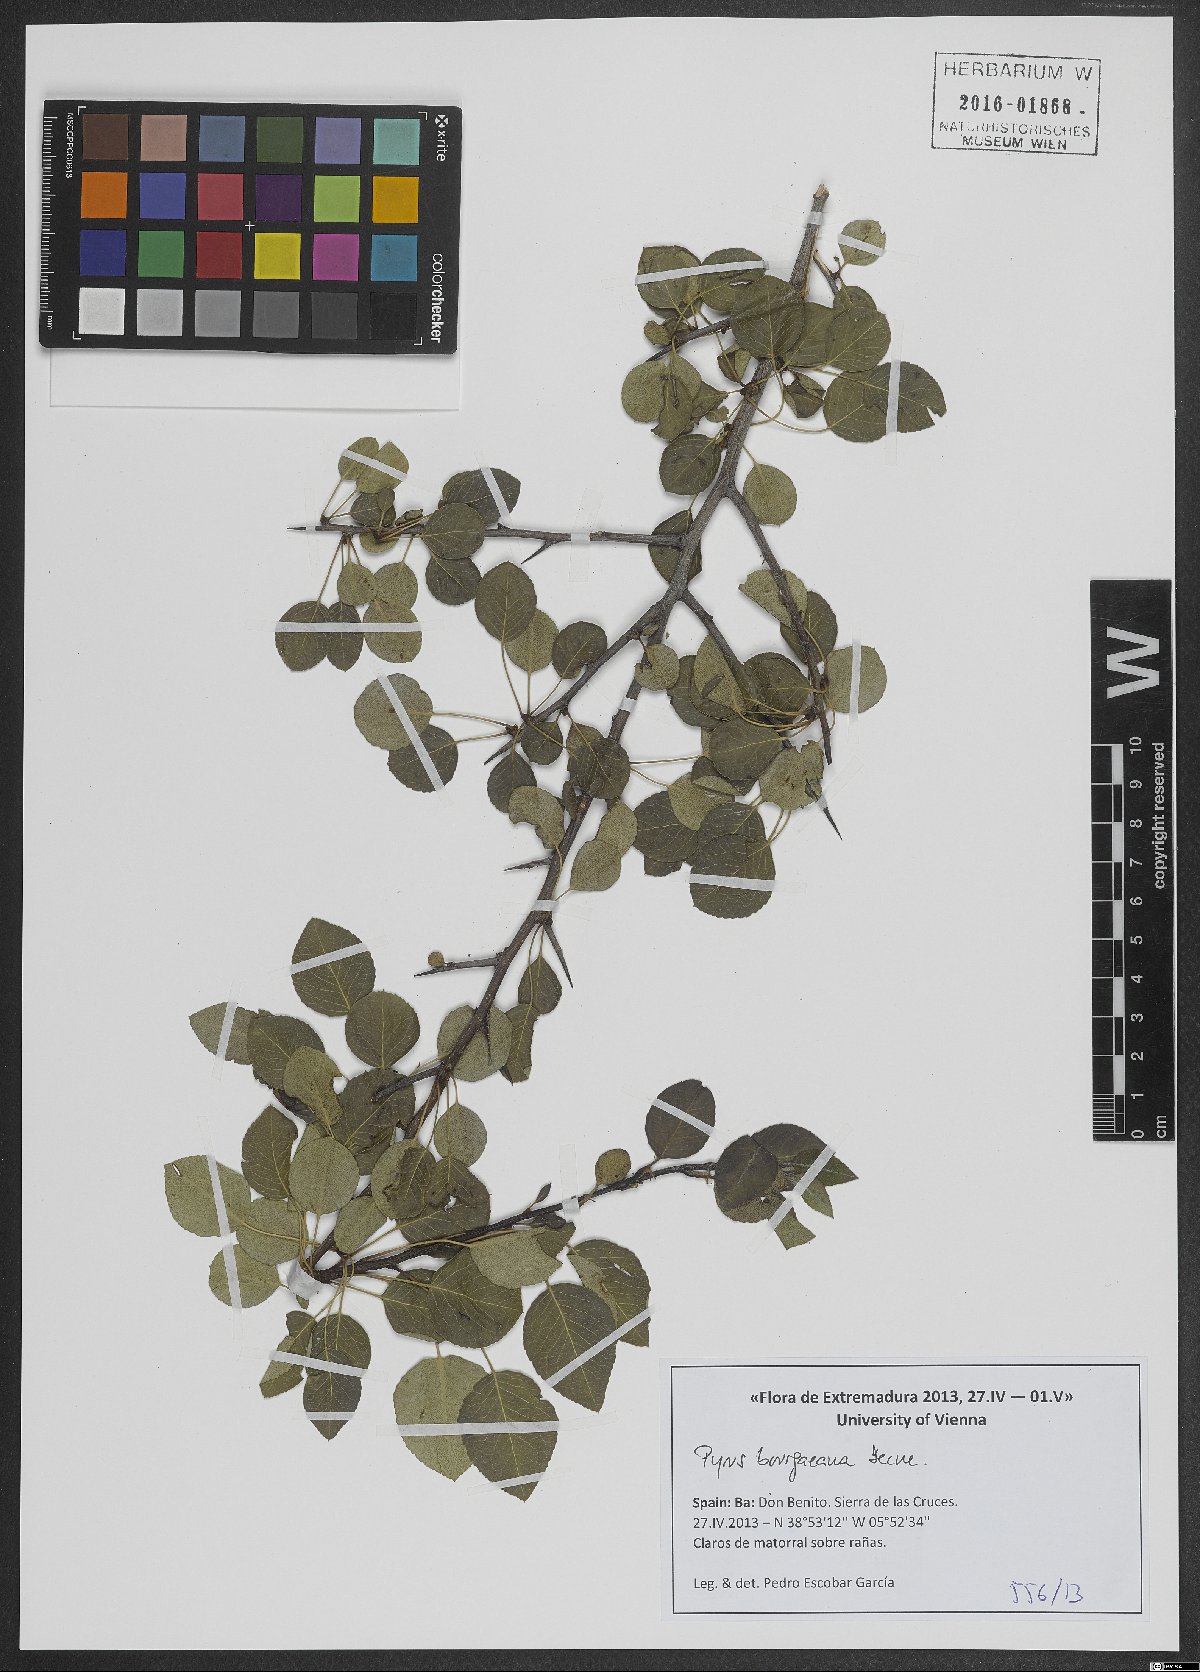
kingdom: Plantae
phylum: Tracheophyta
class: Magnoliopsida
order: Rosales
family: Rosaceae
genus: Pyrus
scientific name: Pyrus bourgaeana
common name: Iberian pear
